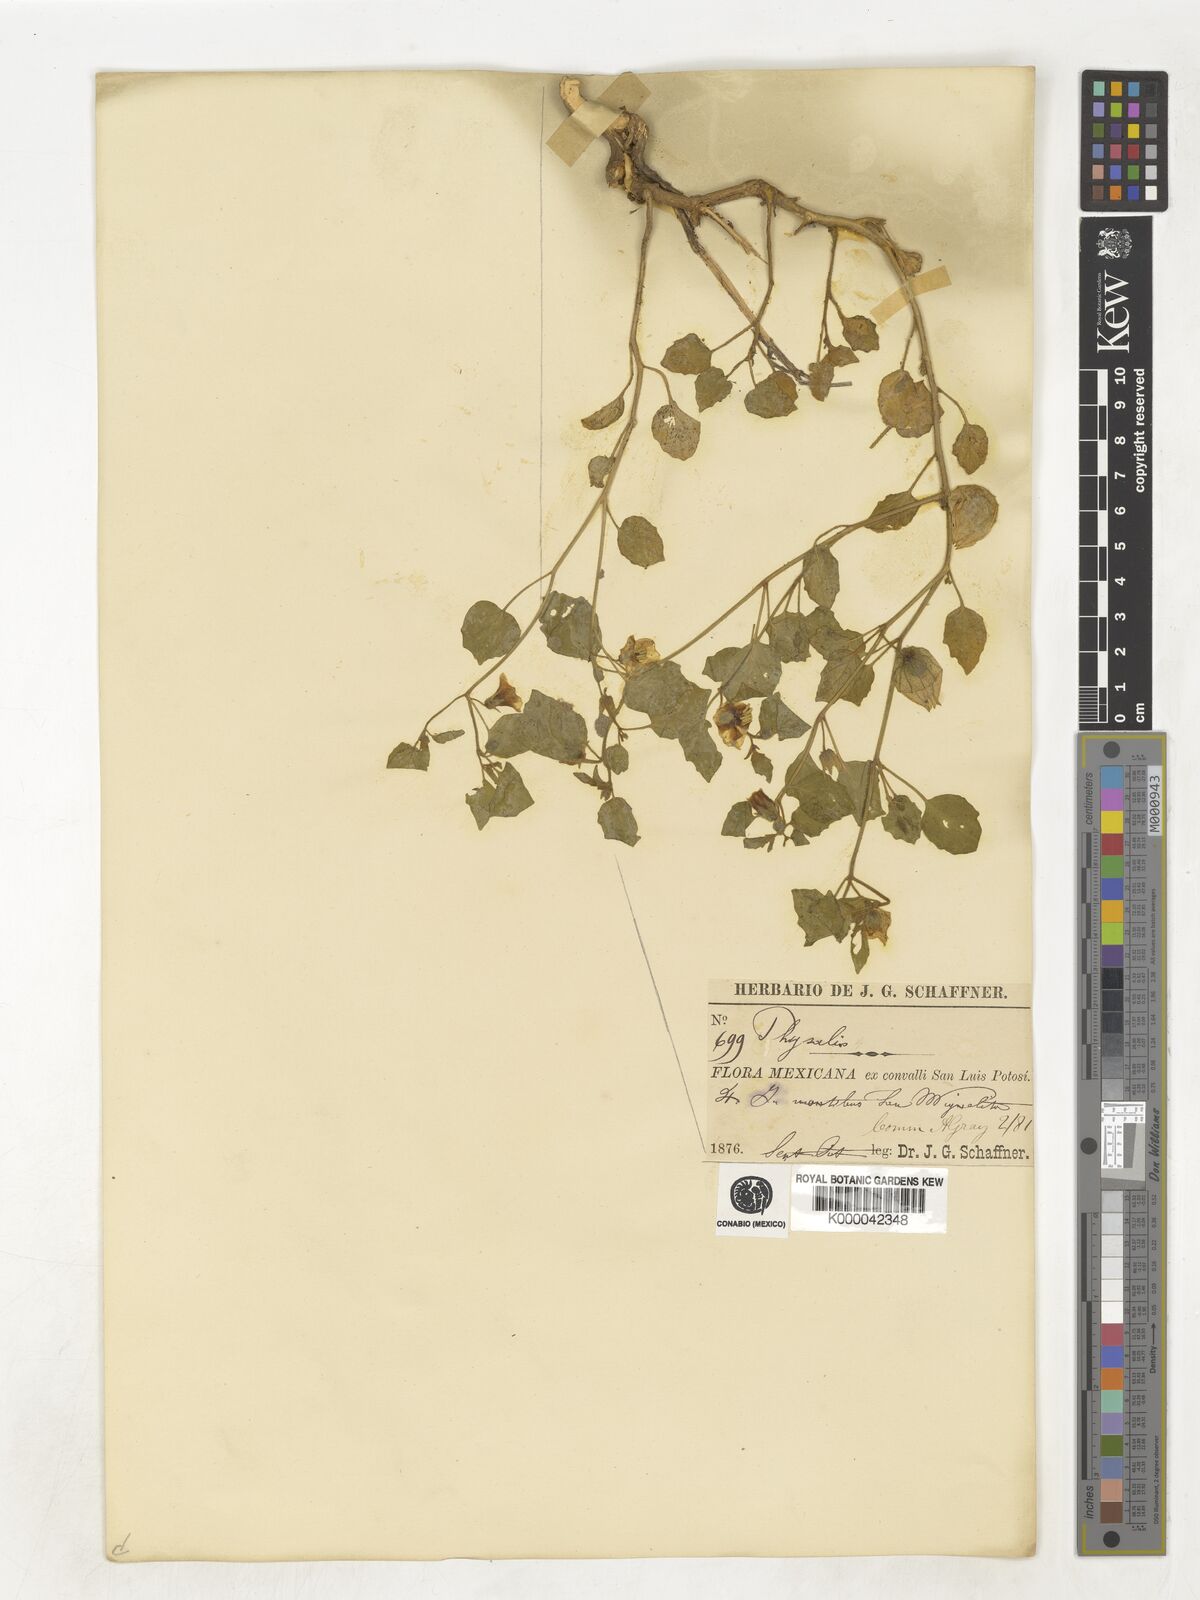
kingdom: Plantae
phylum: Tracheophyta
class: Magnoliopsida
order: Solanales
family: Solanaceae
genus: Physalis
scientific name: Physalis
